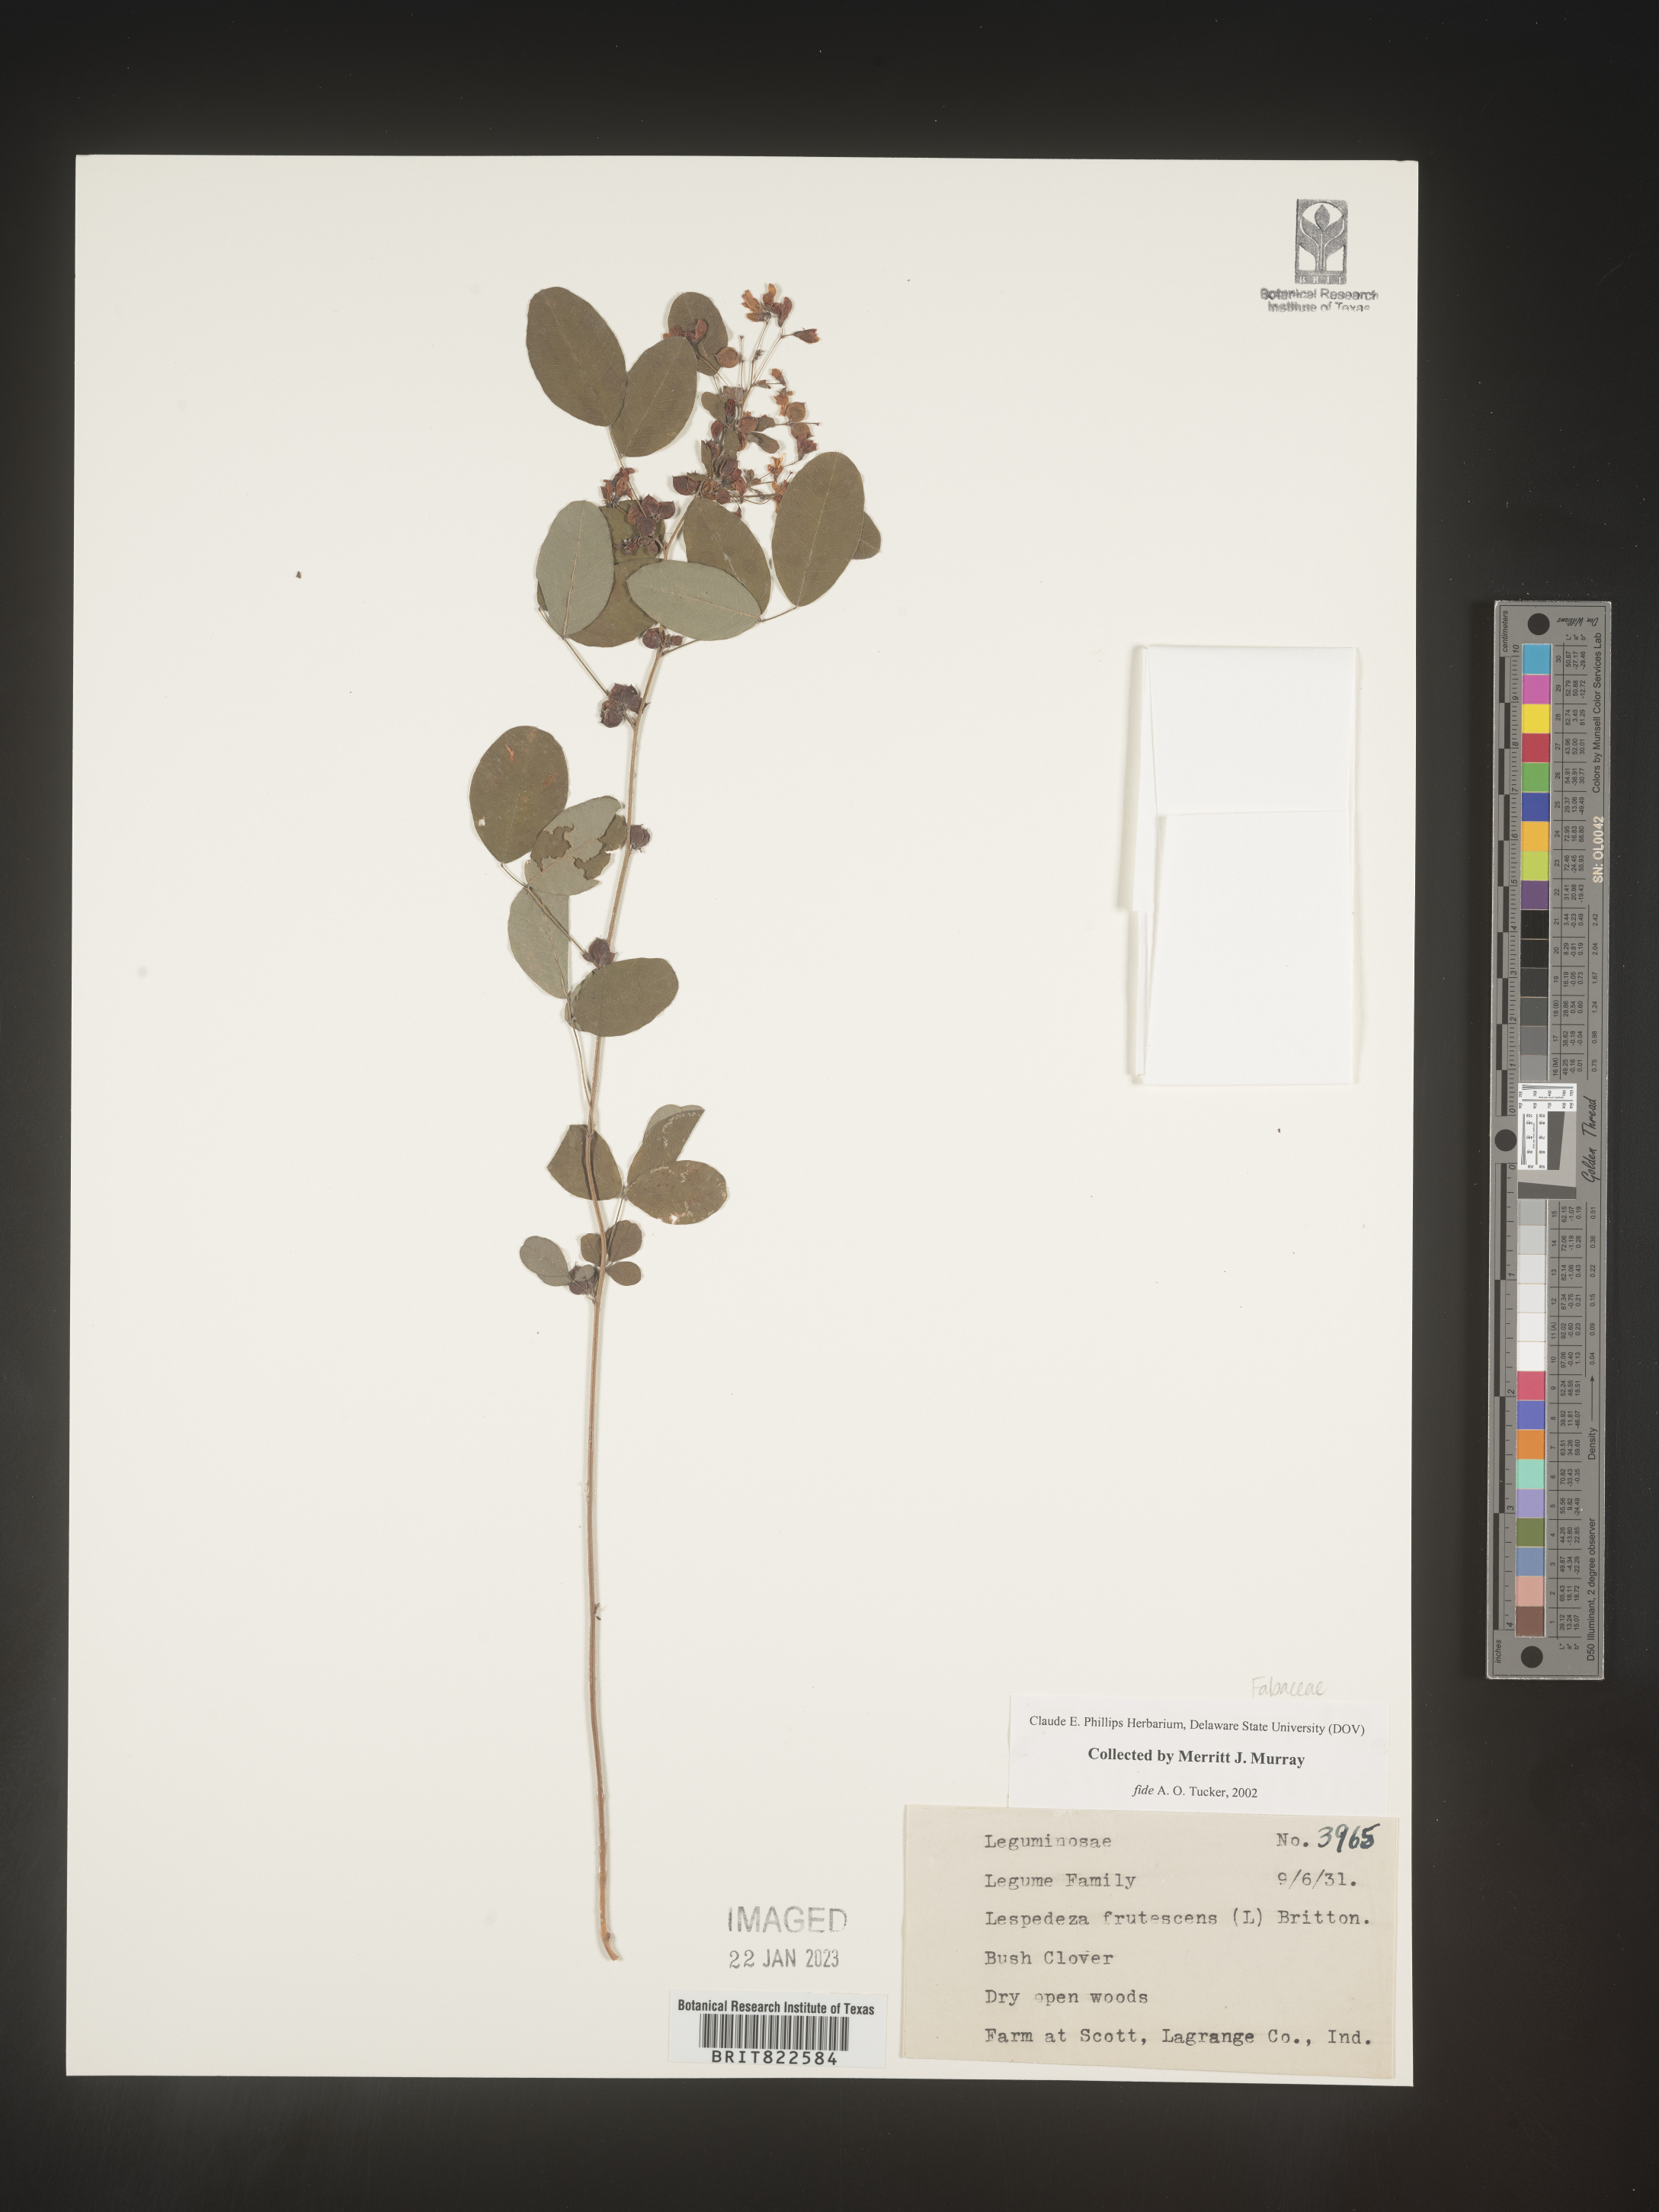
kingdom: Plantae
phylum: Tracheophyta
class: Magnoliopsida
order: Fabales
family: Fabaceae
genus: Lespedeza
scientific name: Lespedeza violacea
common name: Wand bush-clover
